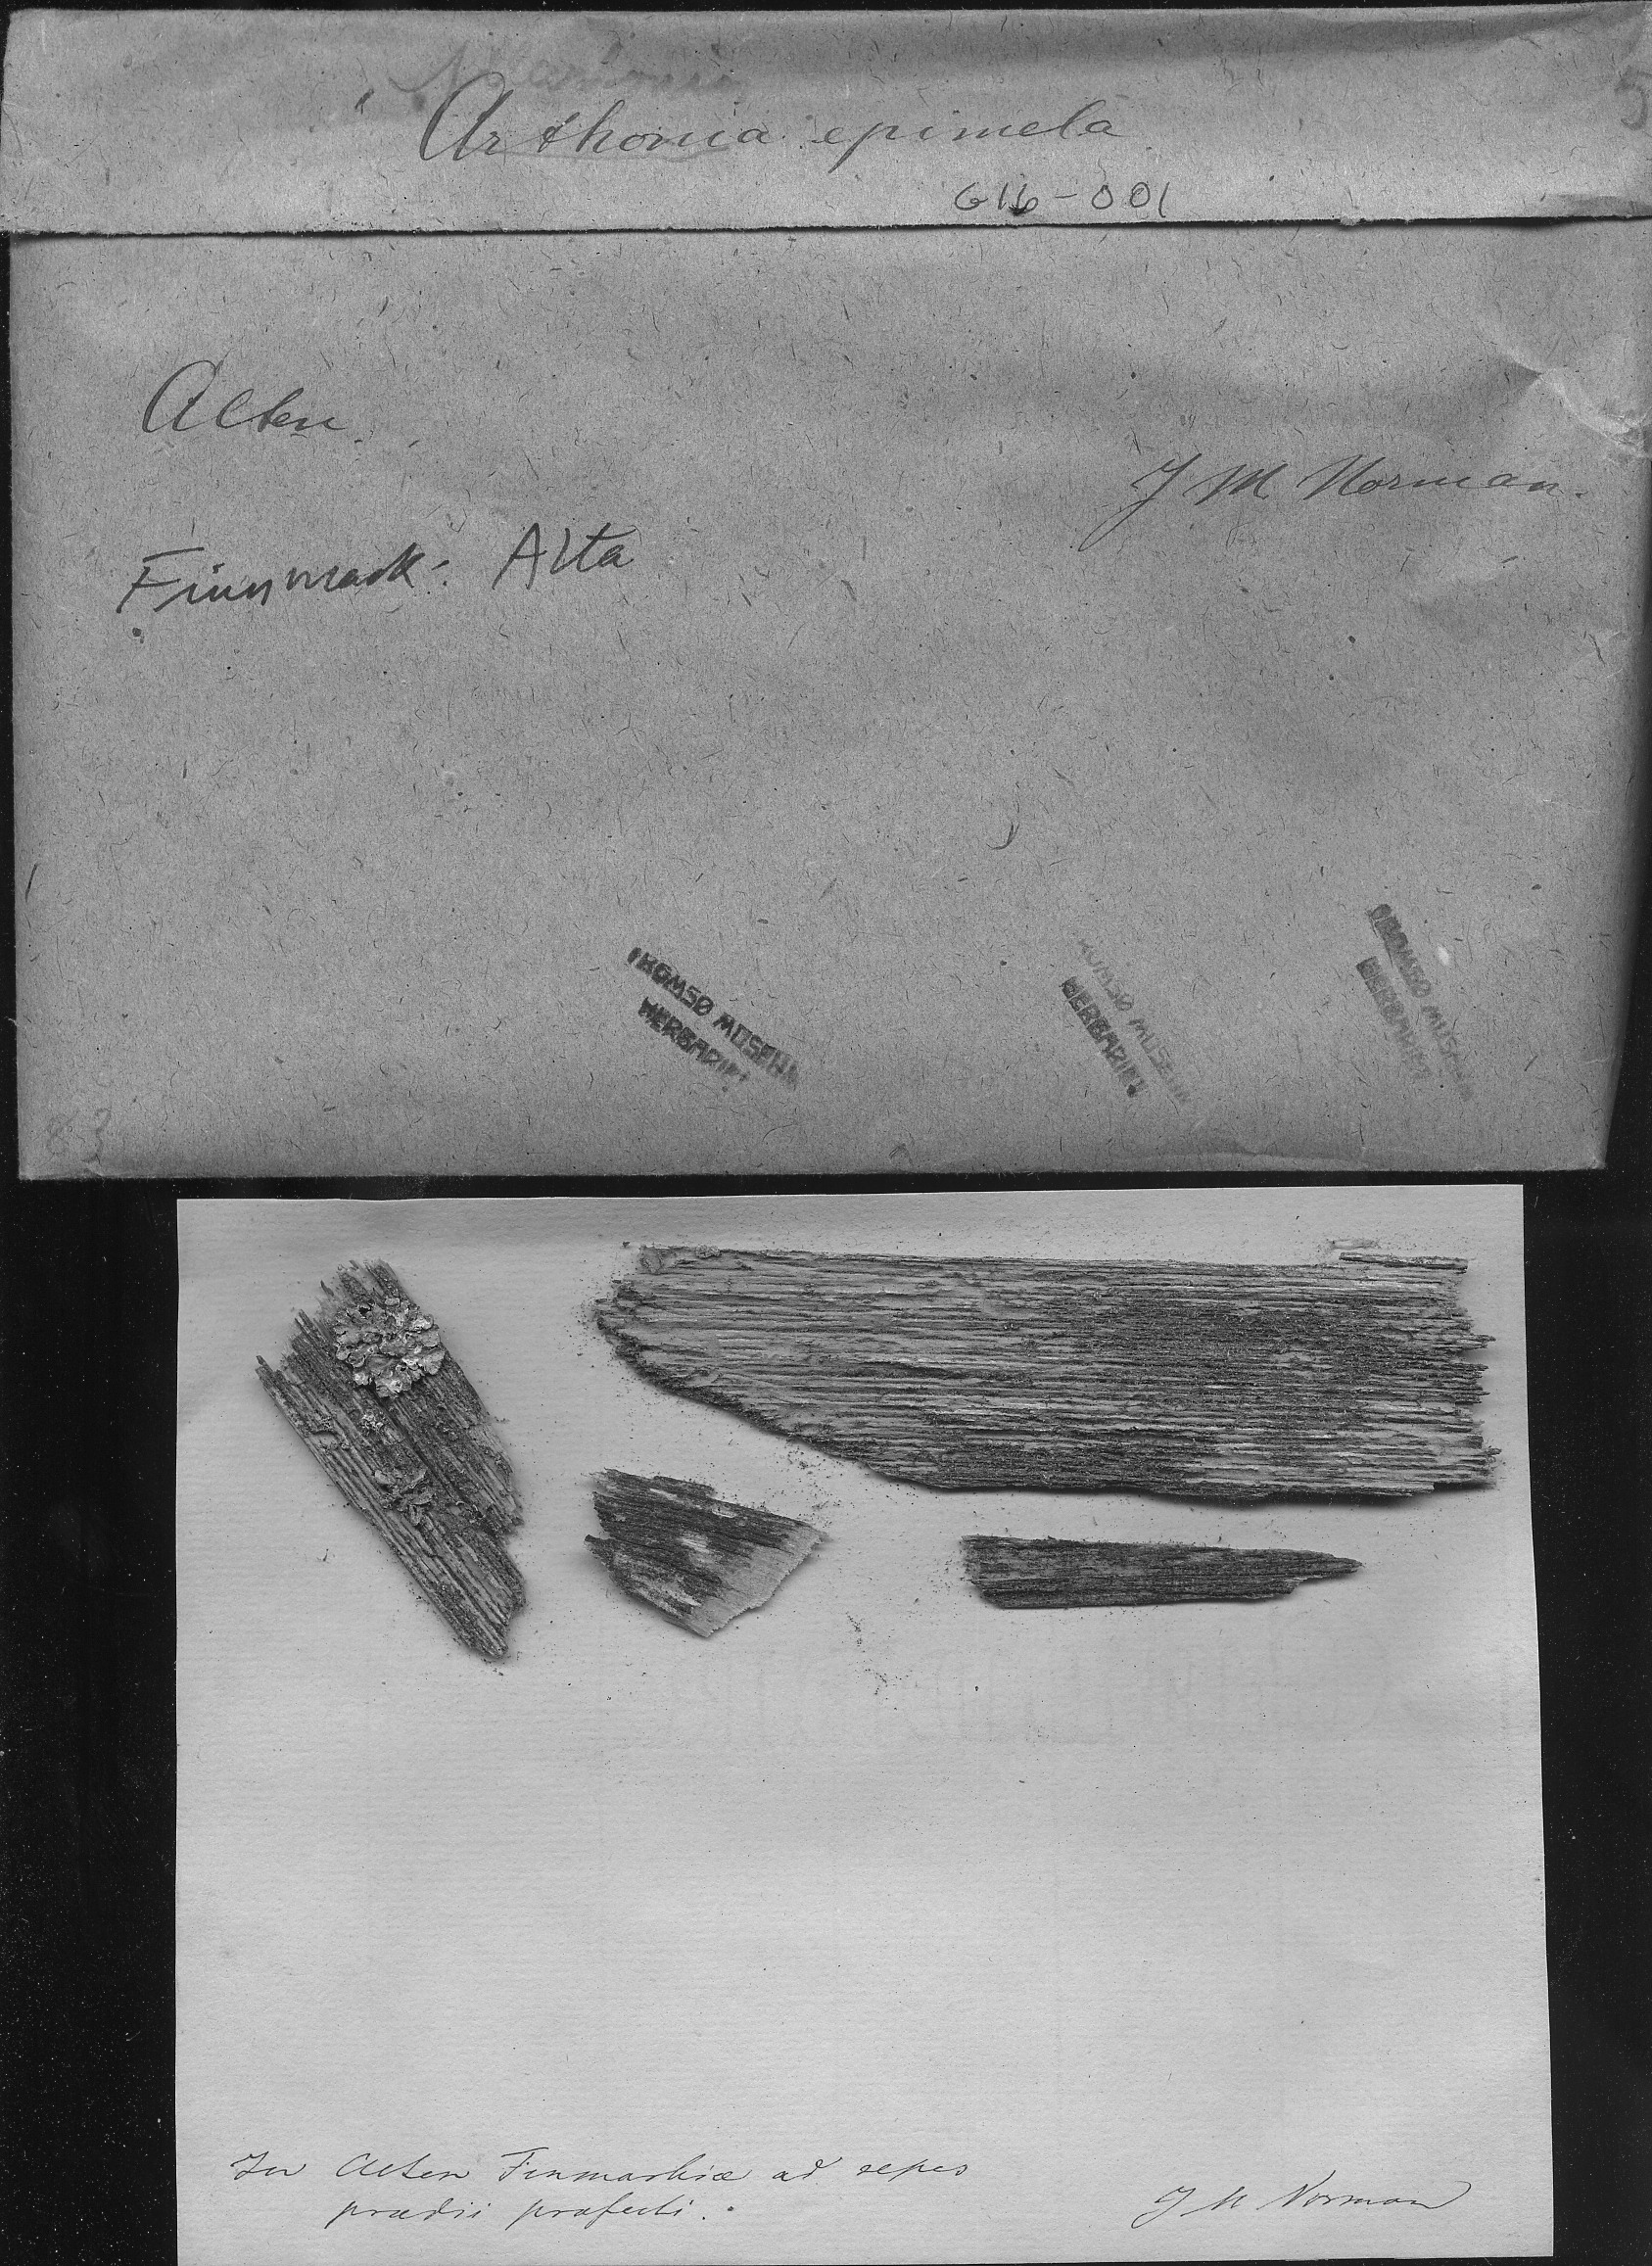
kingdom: Fungi
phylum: Ascomycota
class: Arthoniomycetes
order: Arthoniales
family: Arthoniaceae
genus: Arthonia
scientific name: Arthonia epimela
